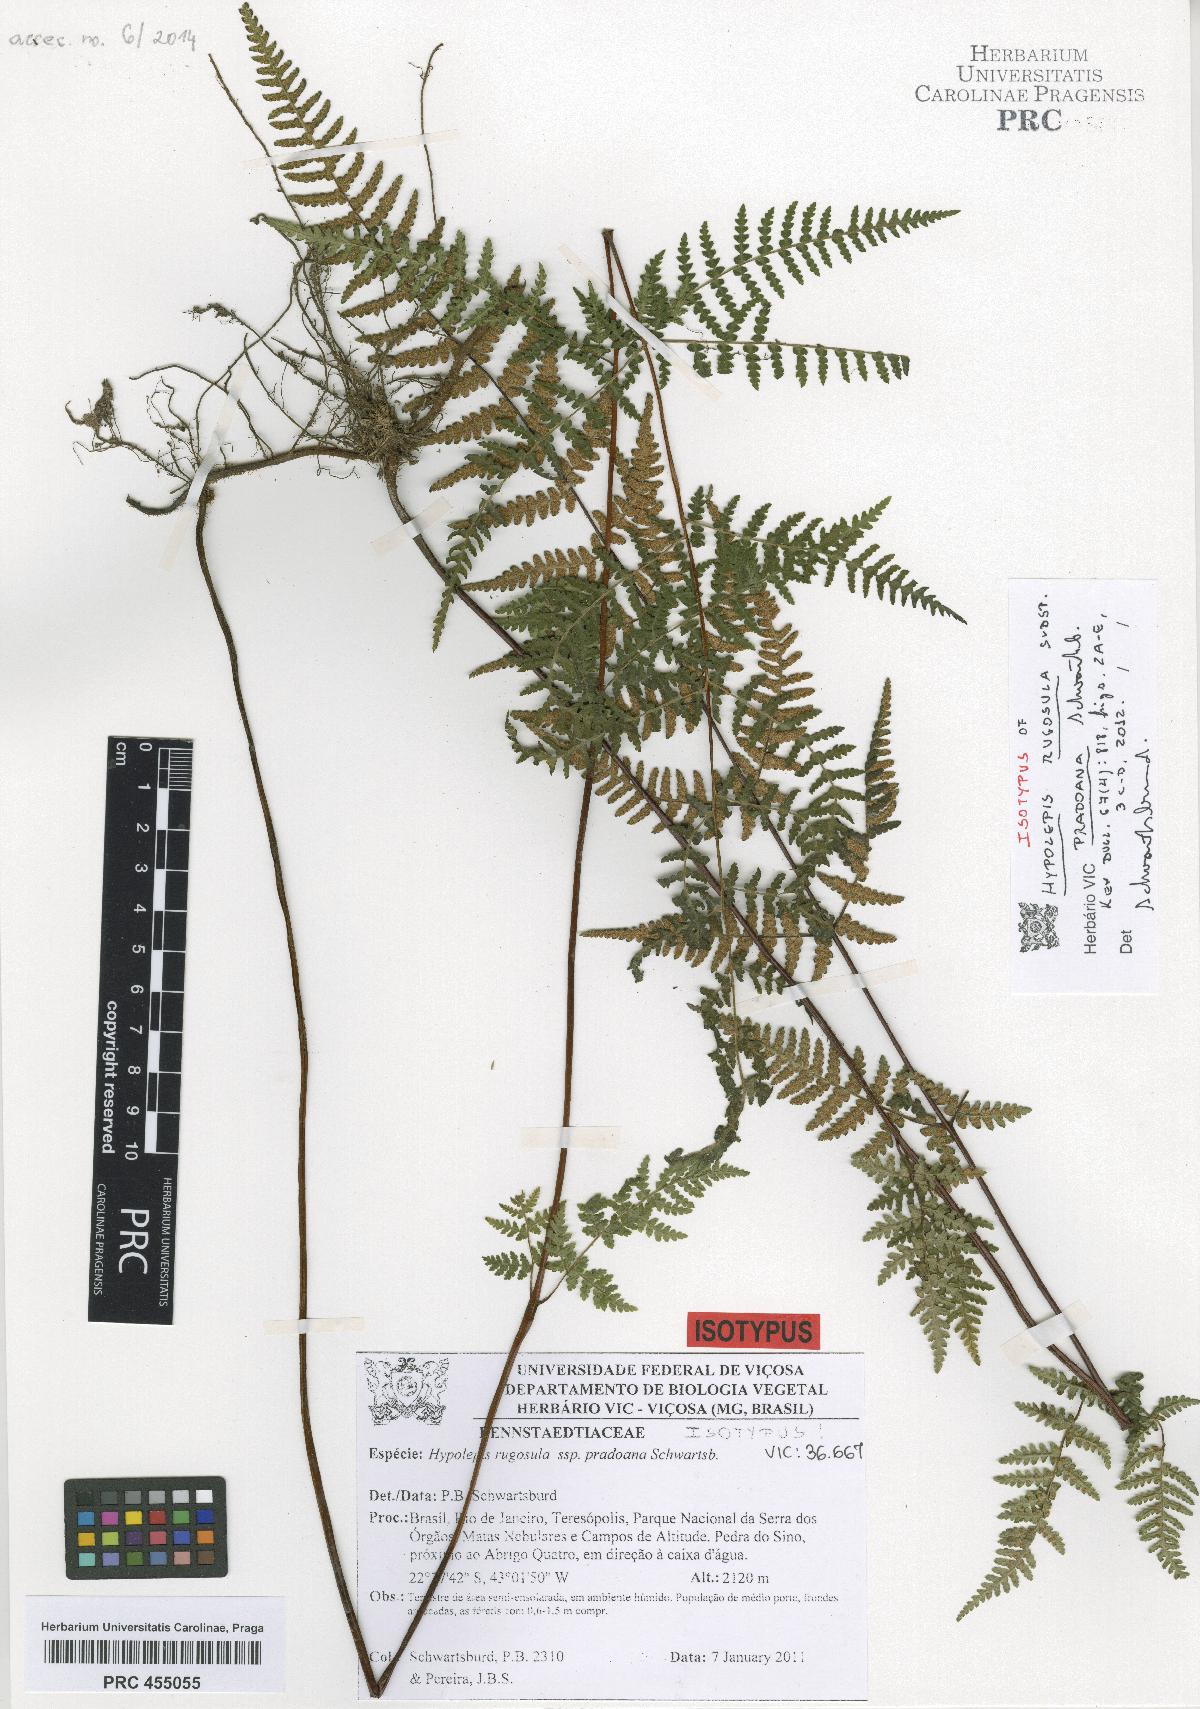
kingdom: Plantae
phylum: Tracheophyta
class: Polypodiopsida
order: Polypodiales
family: Dennstaedtiaceae
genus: Hypolepis
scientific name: Hypolepis rugosula
